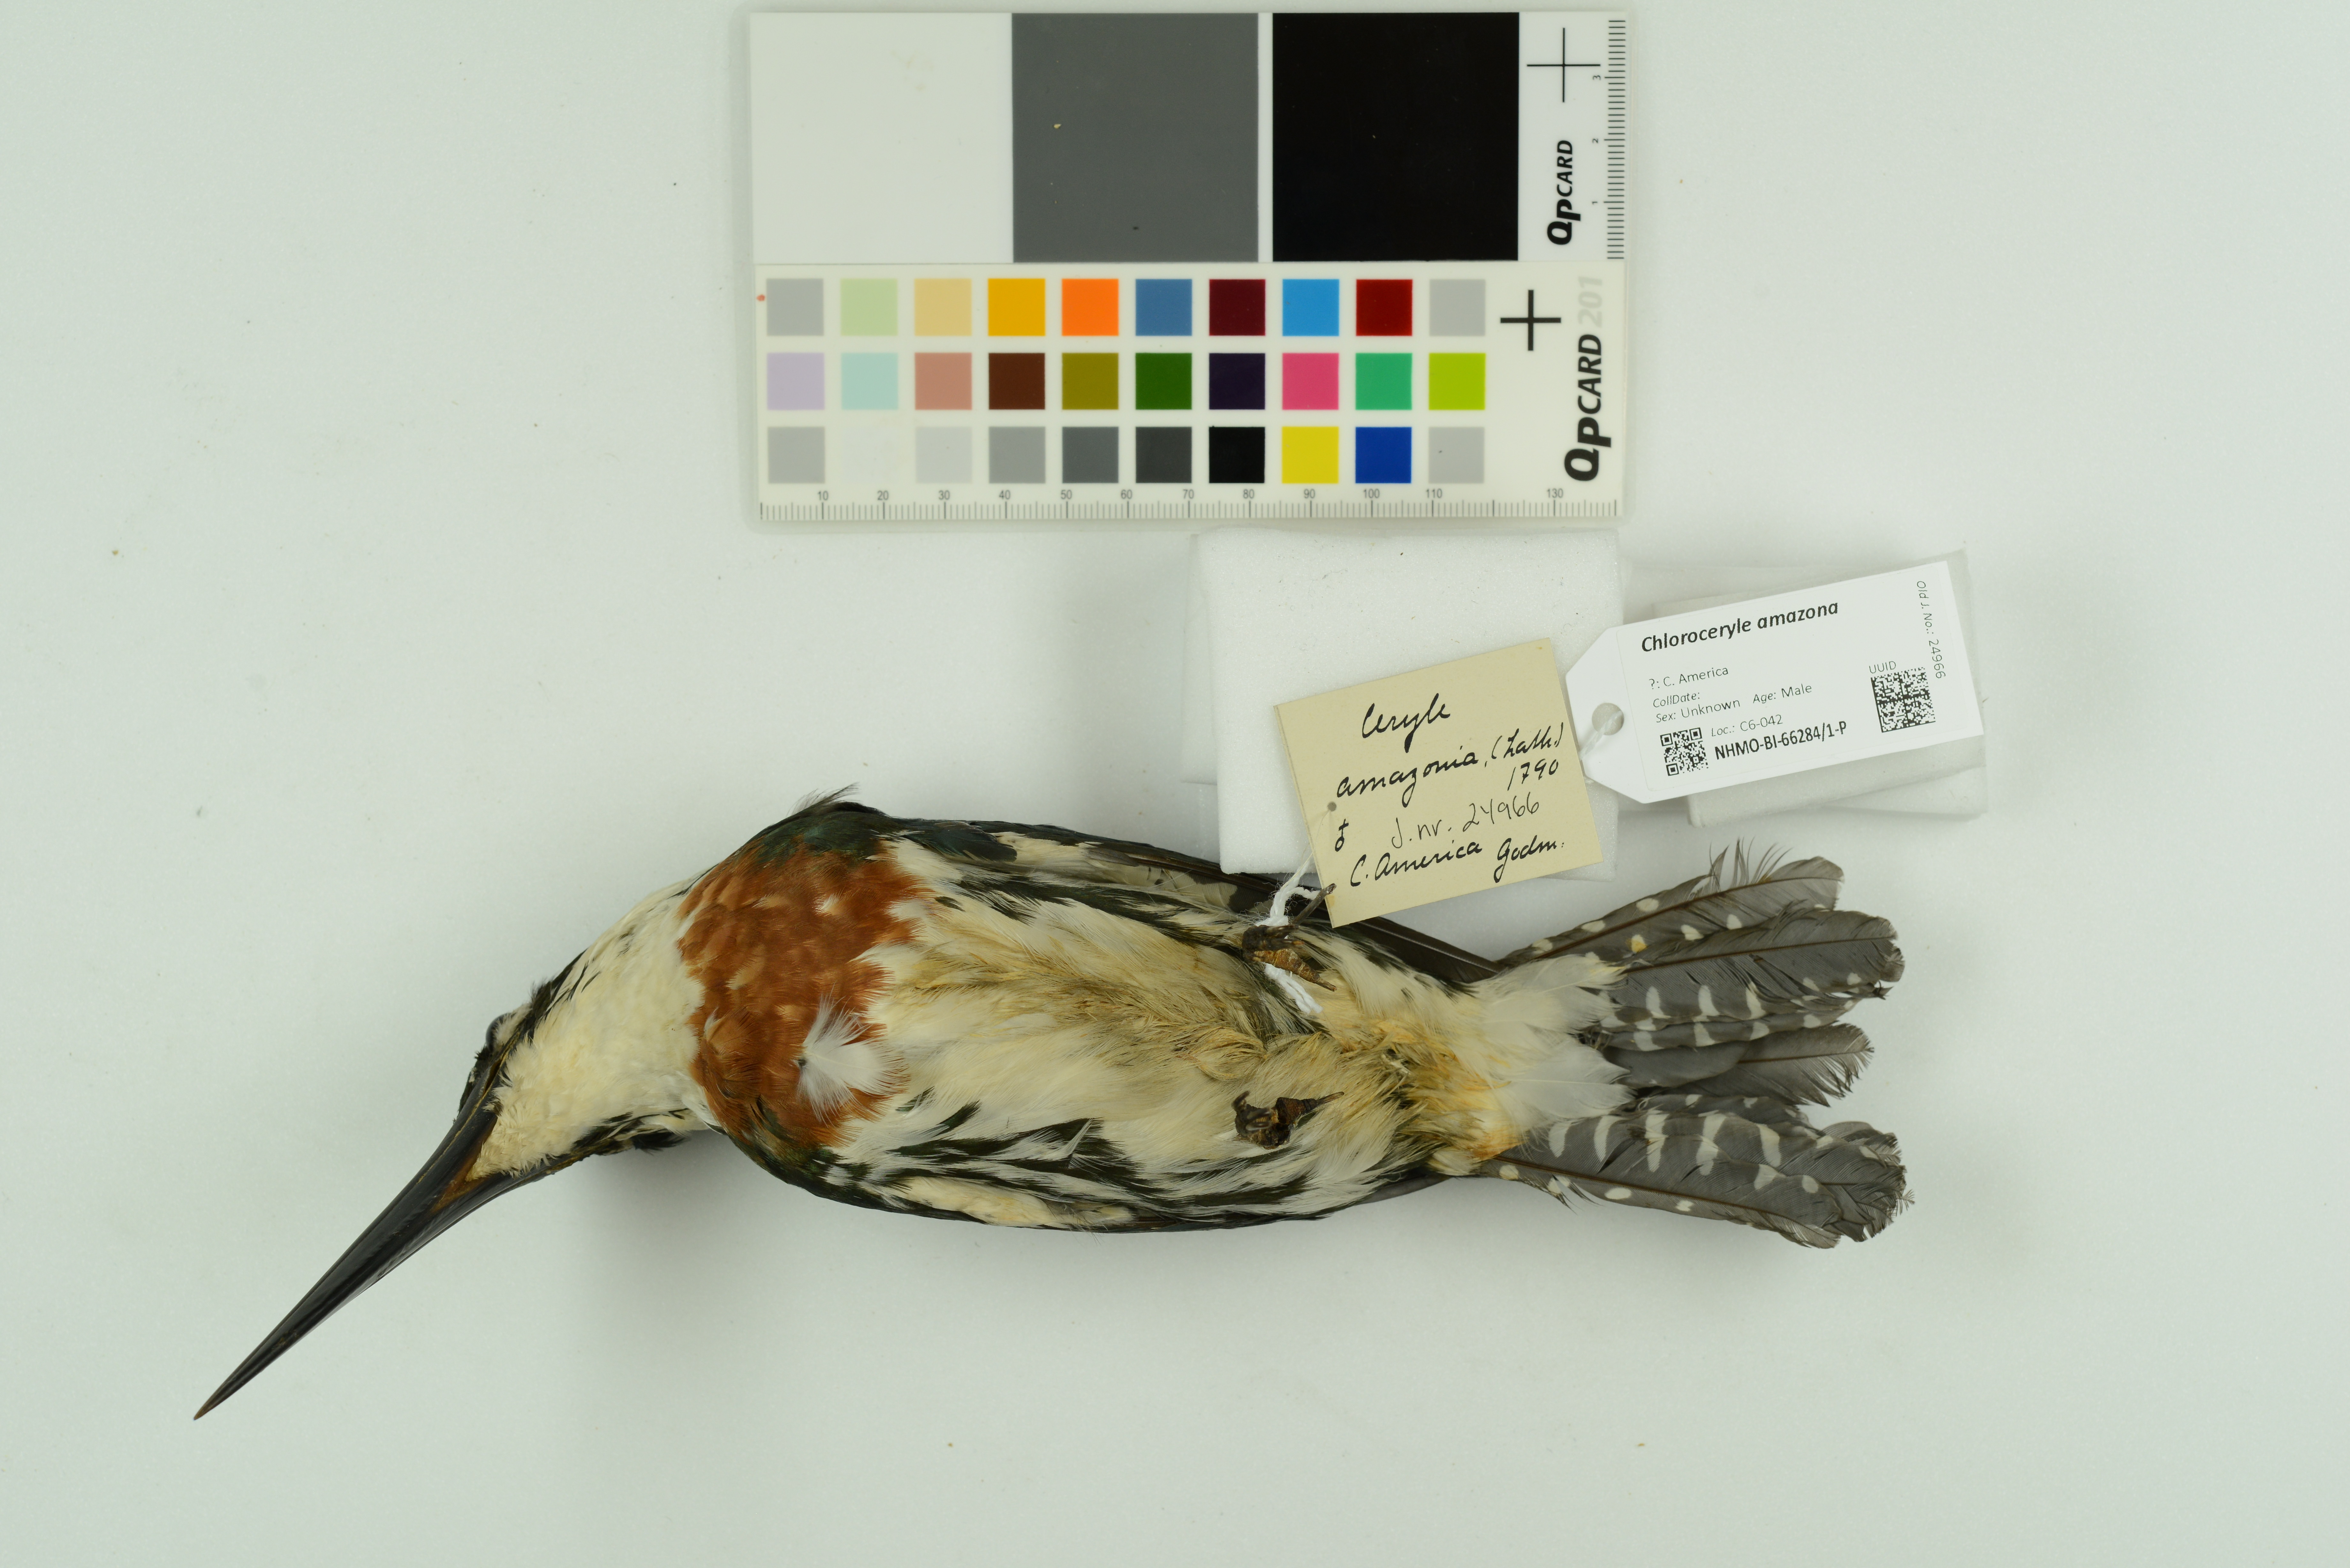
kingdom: Animalia
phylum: Chordata
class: Aves
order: Coraciiformes
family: Alcedinidae
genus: Chloroceryle
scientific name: Chloroceryle amazona
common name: Amazon kingfisher
